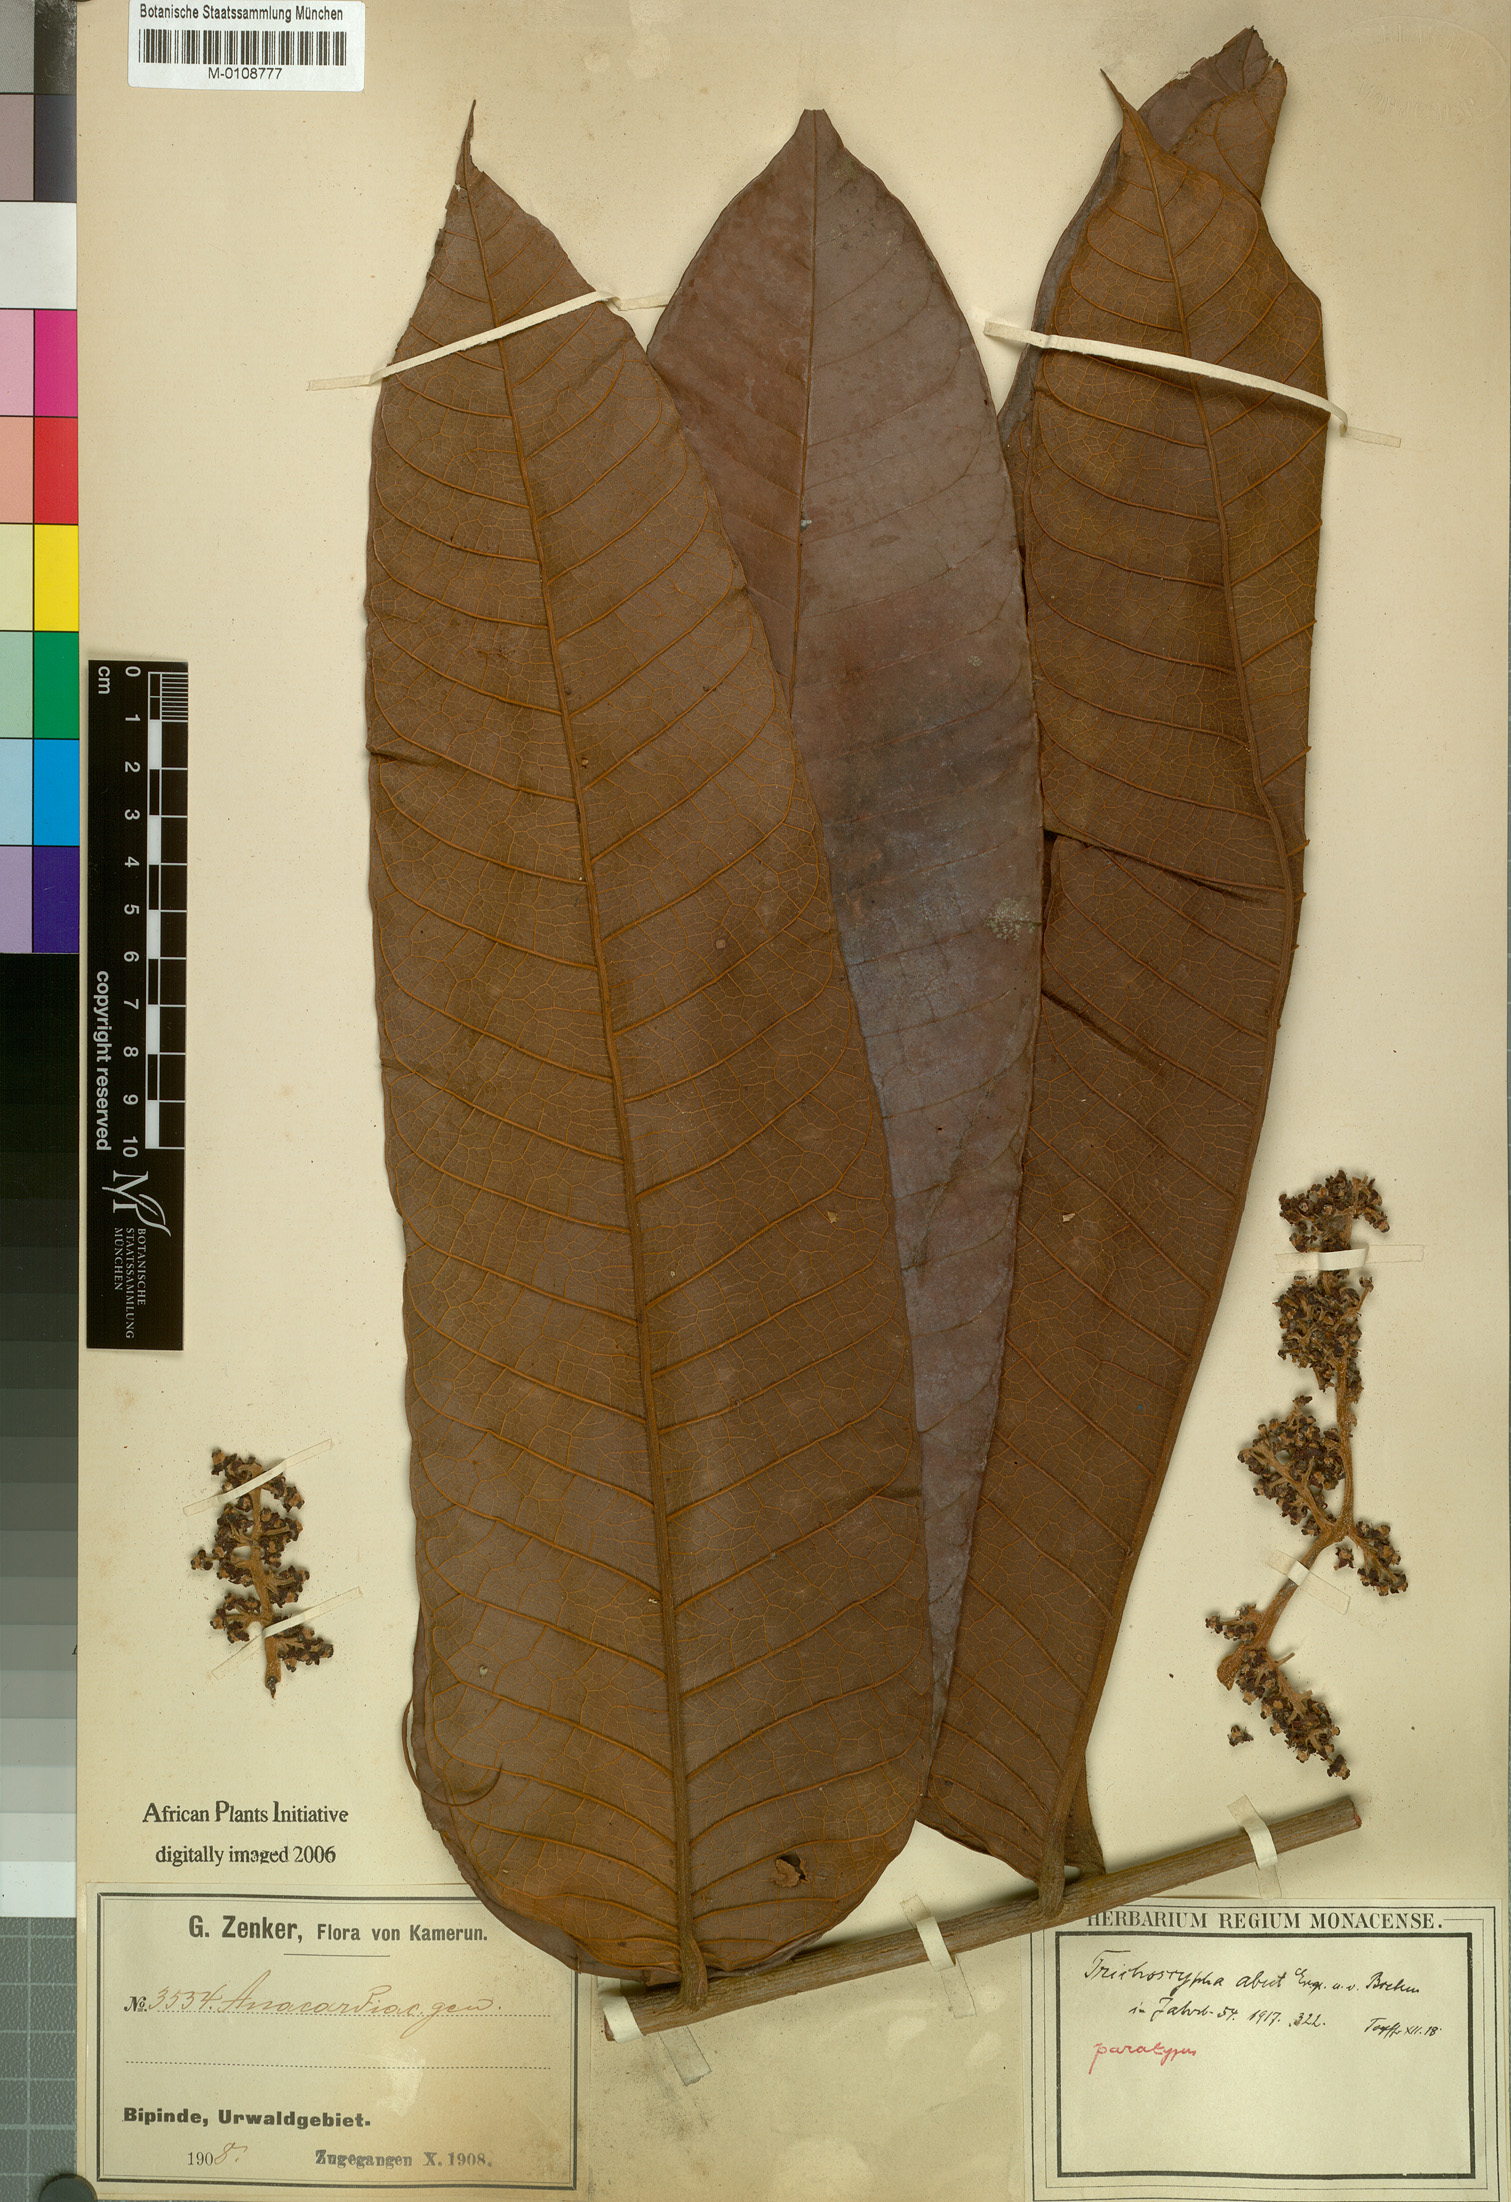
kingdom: Plantae
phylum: Tracheophyta
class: Magnoliopsida
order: Sapindales
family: Anacardiaceae
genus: Trichoscypha
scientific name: Trichoscypha oddonii
